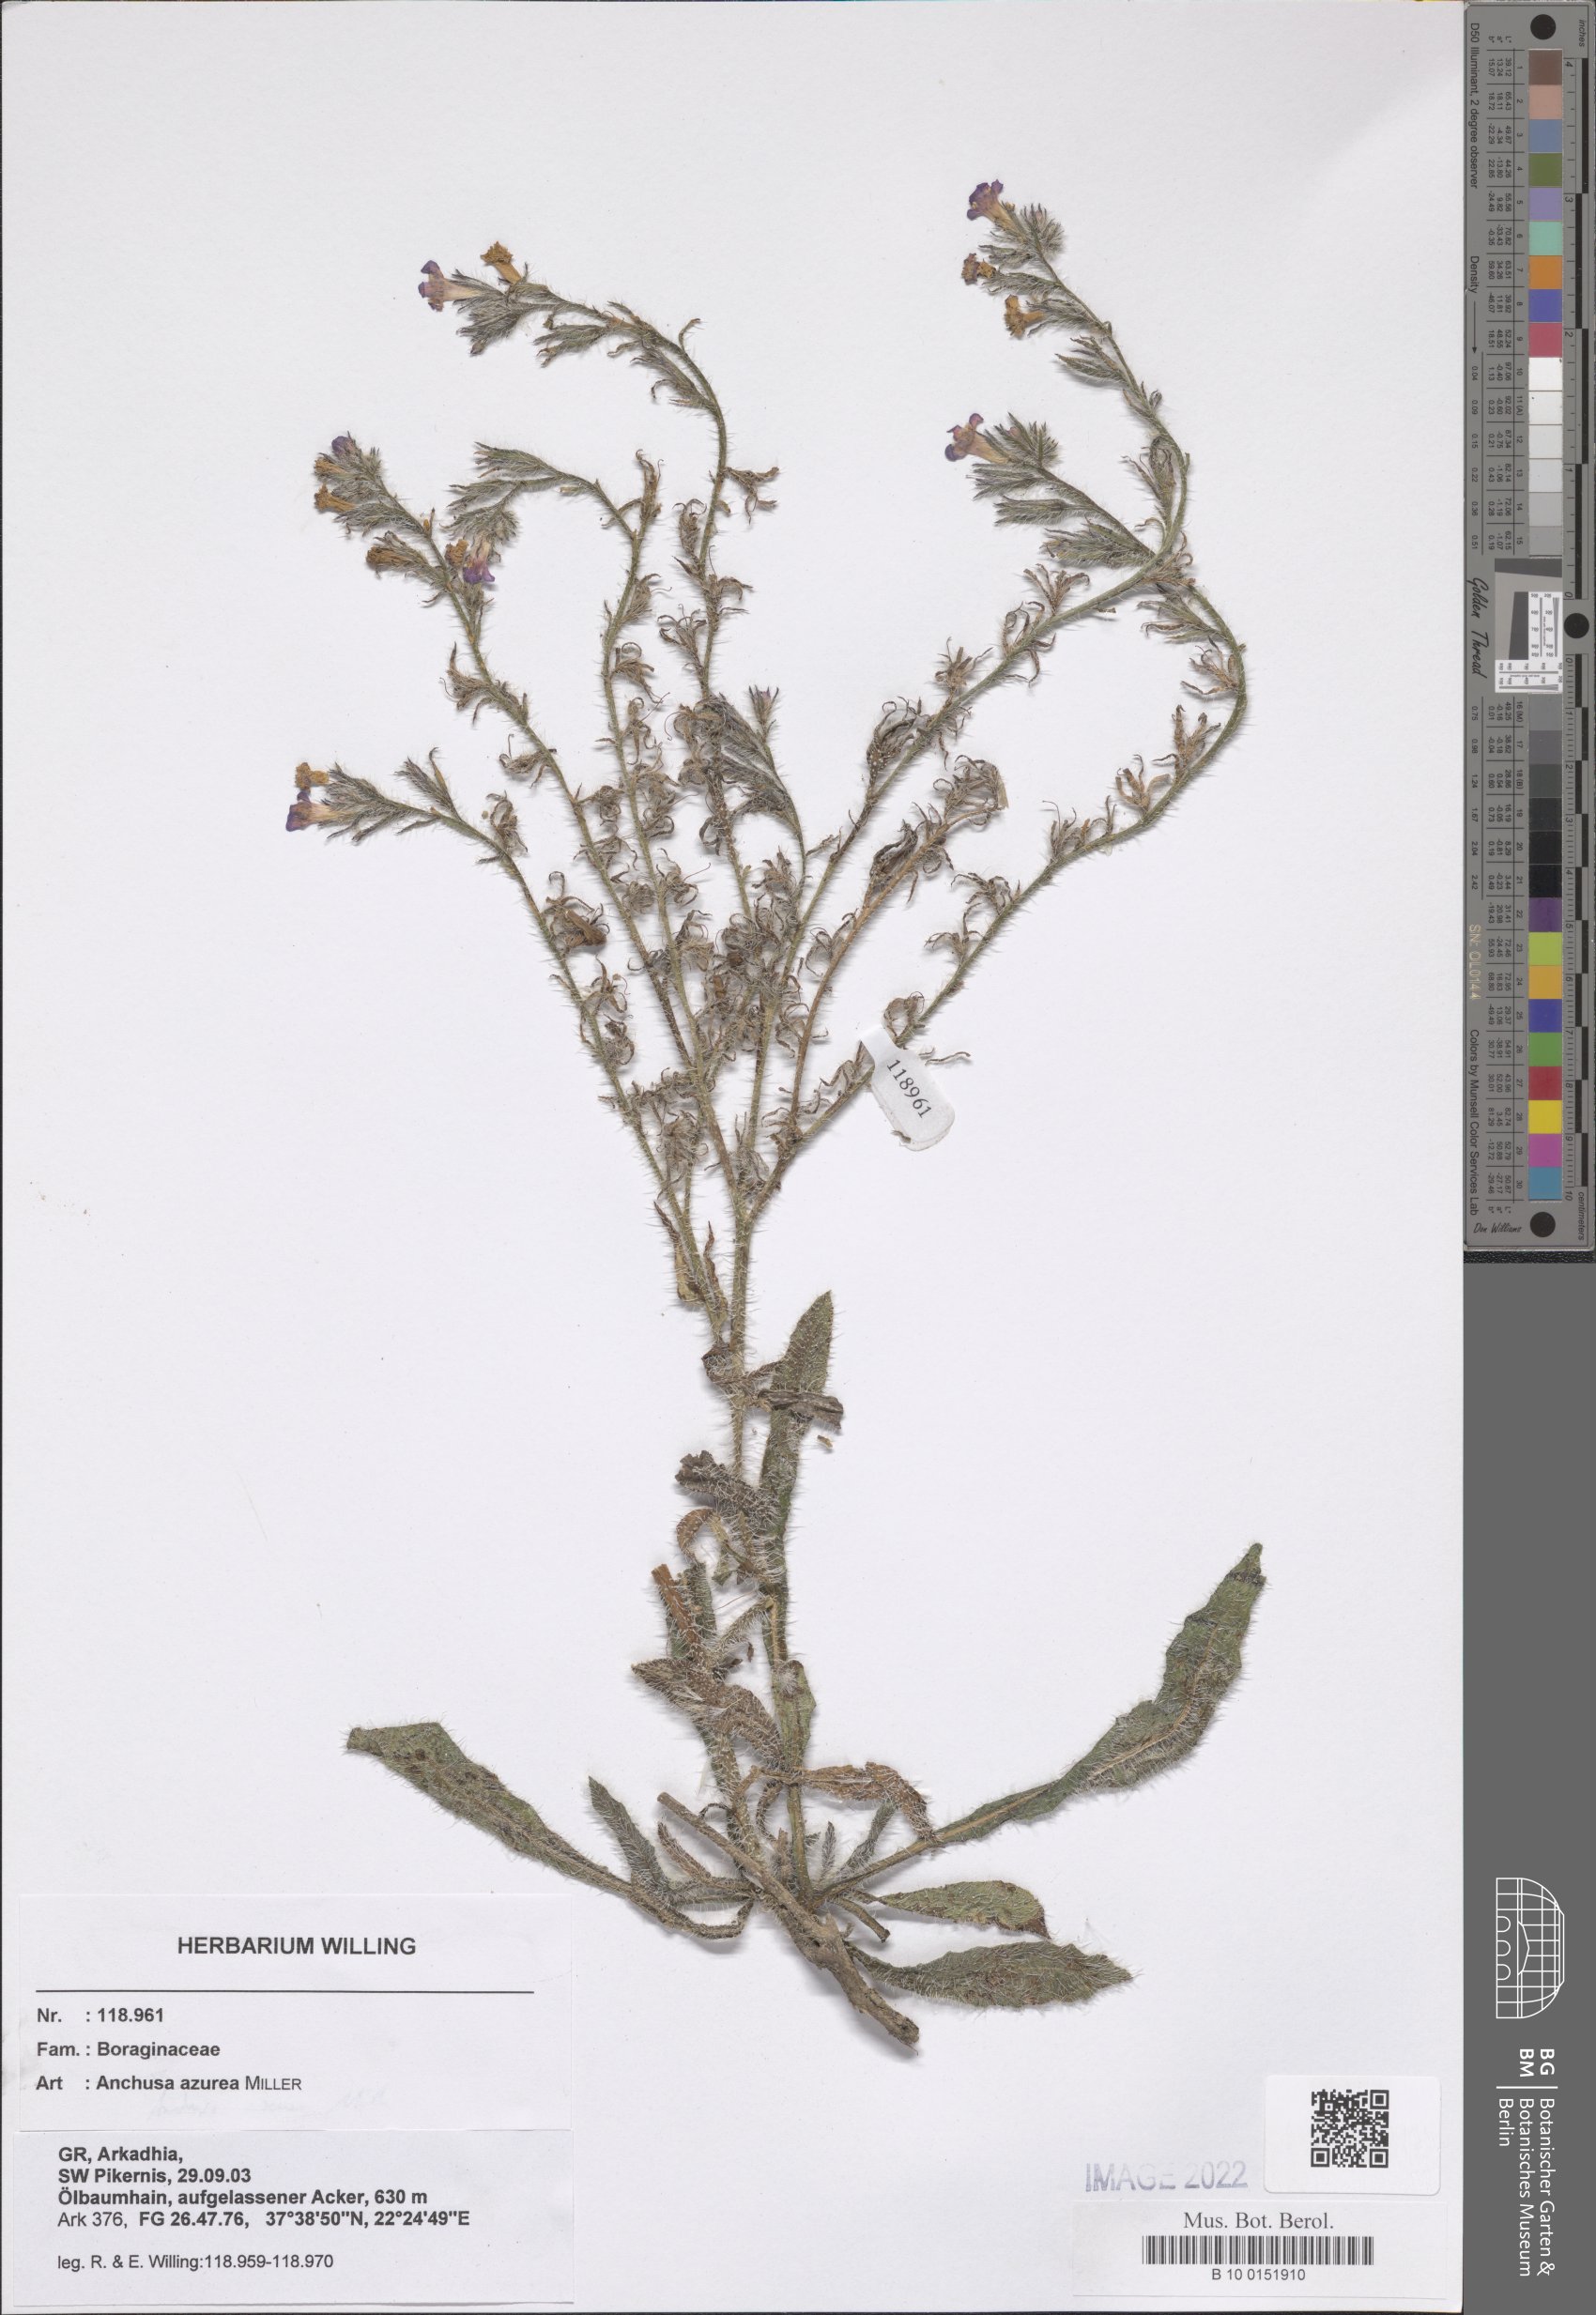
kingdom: Plantae
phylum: Tracheophyta
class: Magnoliopsida
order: Boraginales
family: Boraginaceae
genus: Anchusa
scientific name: Anchusa azurea
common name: Garden anchusa
